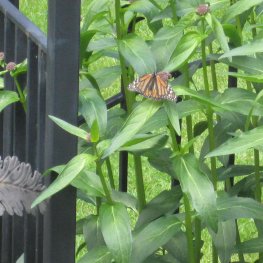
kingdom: Animalia
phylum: Arthropoda
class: Insecta
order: Lepidoptera
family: Nymphalidae
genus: Danaus
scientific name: Danaus plexippus
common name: Monarch
